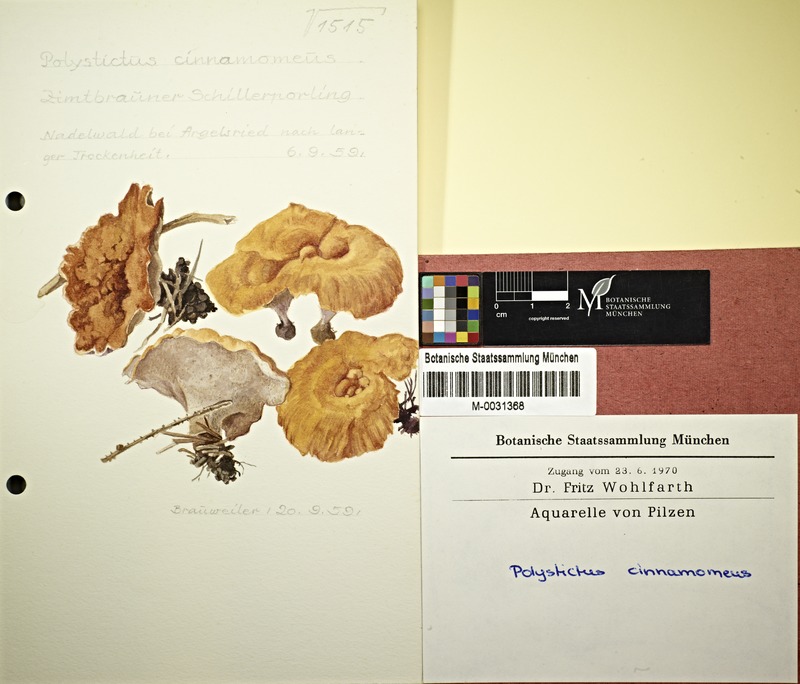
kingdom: Fungi
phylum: Basidiomycota
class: Agaricomycetes
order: Hymenochaetales
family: Hymenochaetaceae
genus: Coltricia
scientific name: Coltricia cinnamomea
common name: Shiny cinnamon polypore
